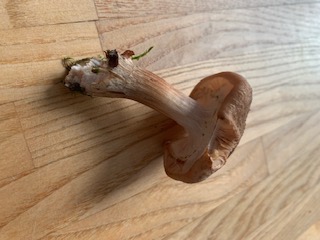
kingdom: Fungi
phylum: Basidiomycota
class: Agaricomycetes
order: Agaricales
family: Physalacriaceae
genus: Armillaria
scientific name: Armillaria
